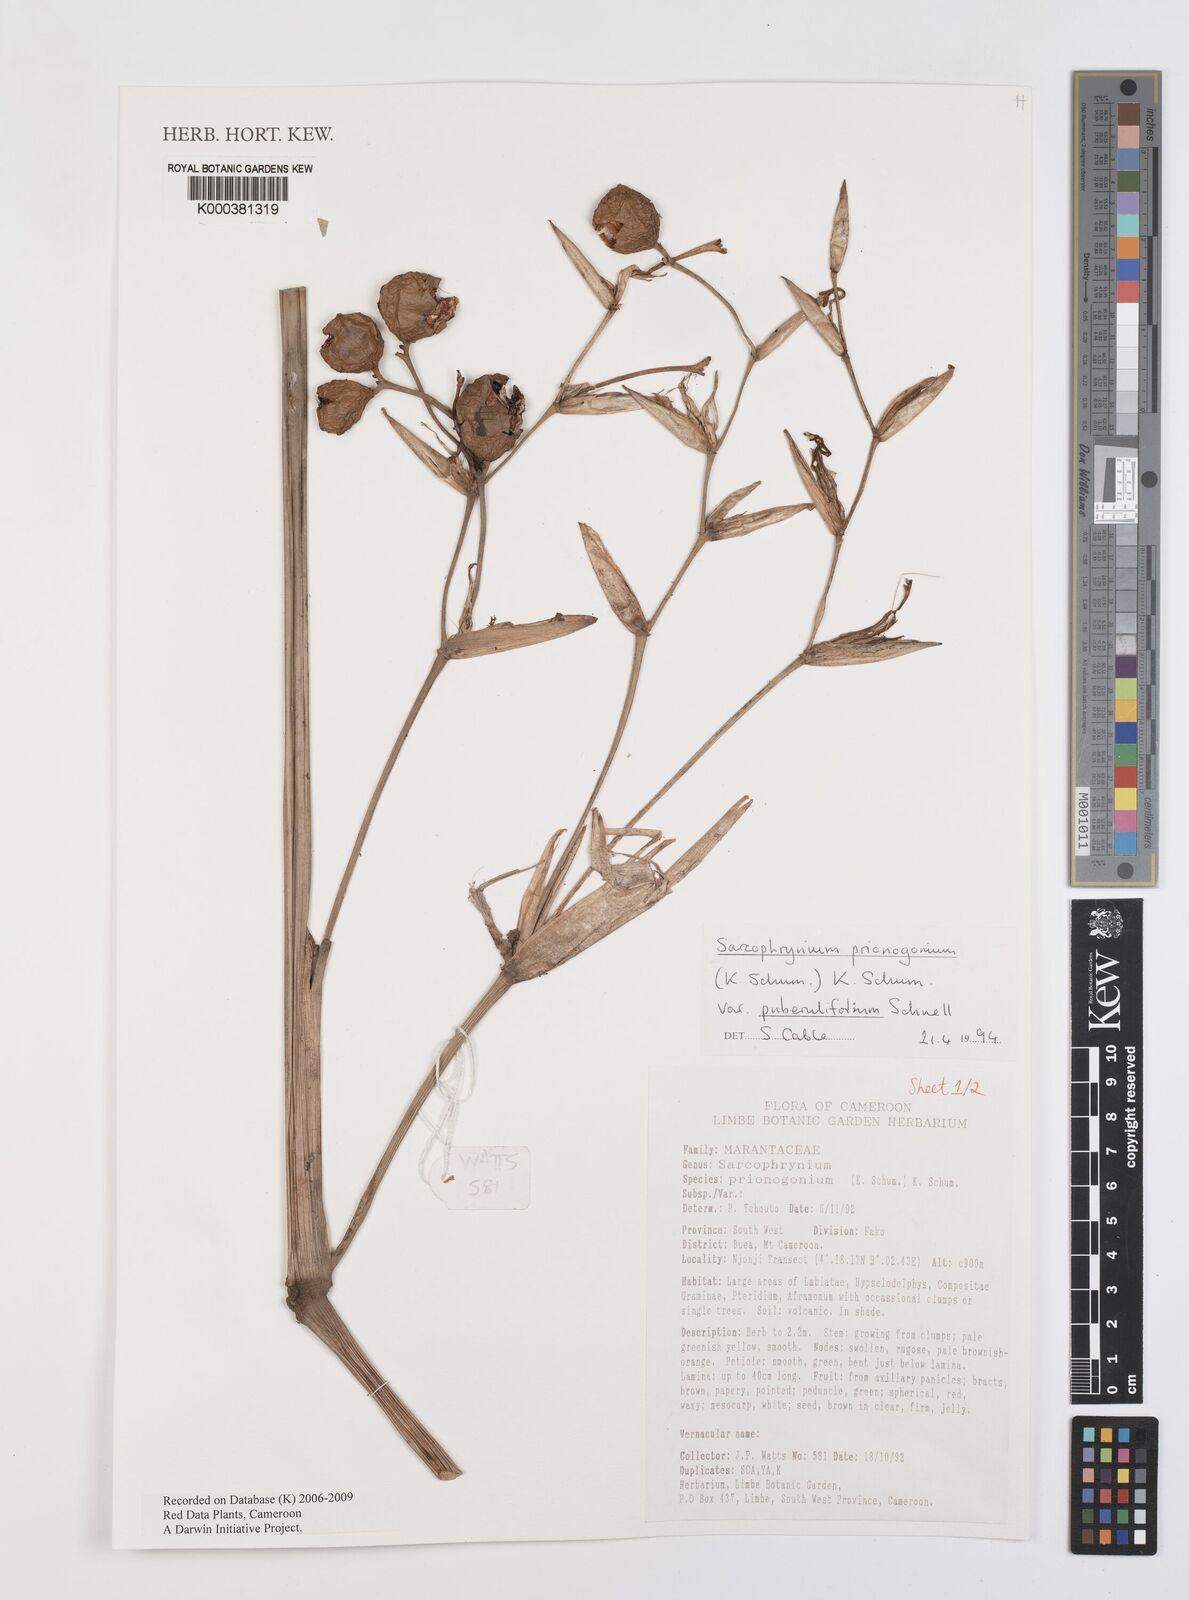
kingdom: Plantae
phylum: Tracheophyta
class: Liliopsida
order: Zingiberales
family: Marantaceae
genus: Sarcophrynium
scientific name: Sarcophrynium prionogonium
